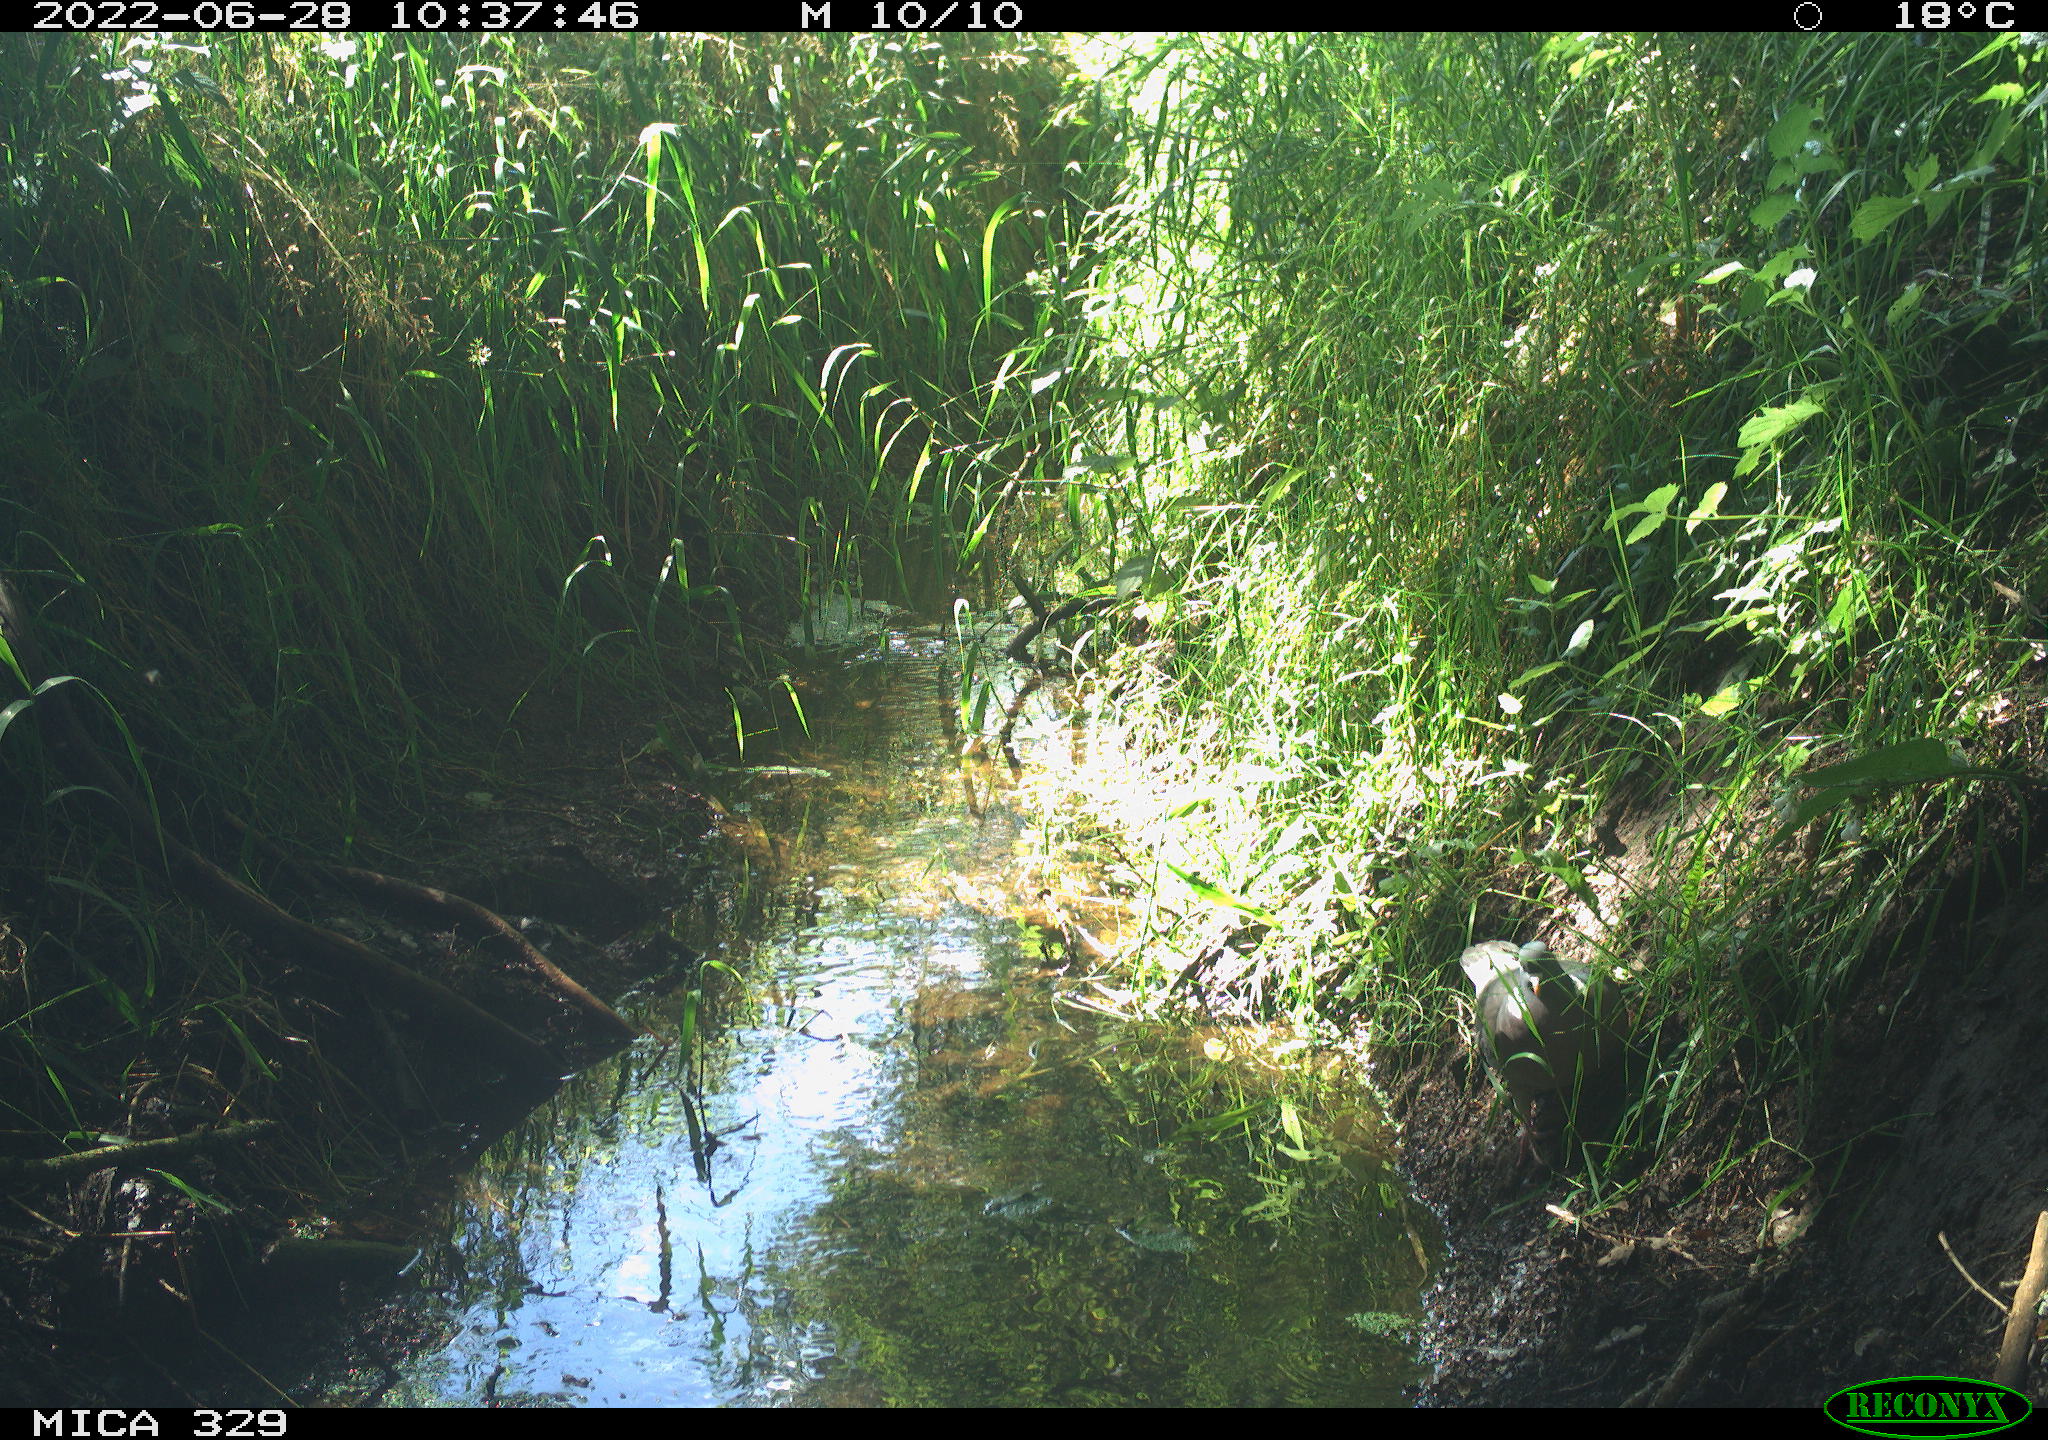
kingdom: Animalia
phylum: Chordata
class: Aves
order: Columbiformes
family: Columbidae
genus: Columba
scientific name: Columba palumbus
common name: Common wood pigeon
